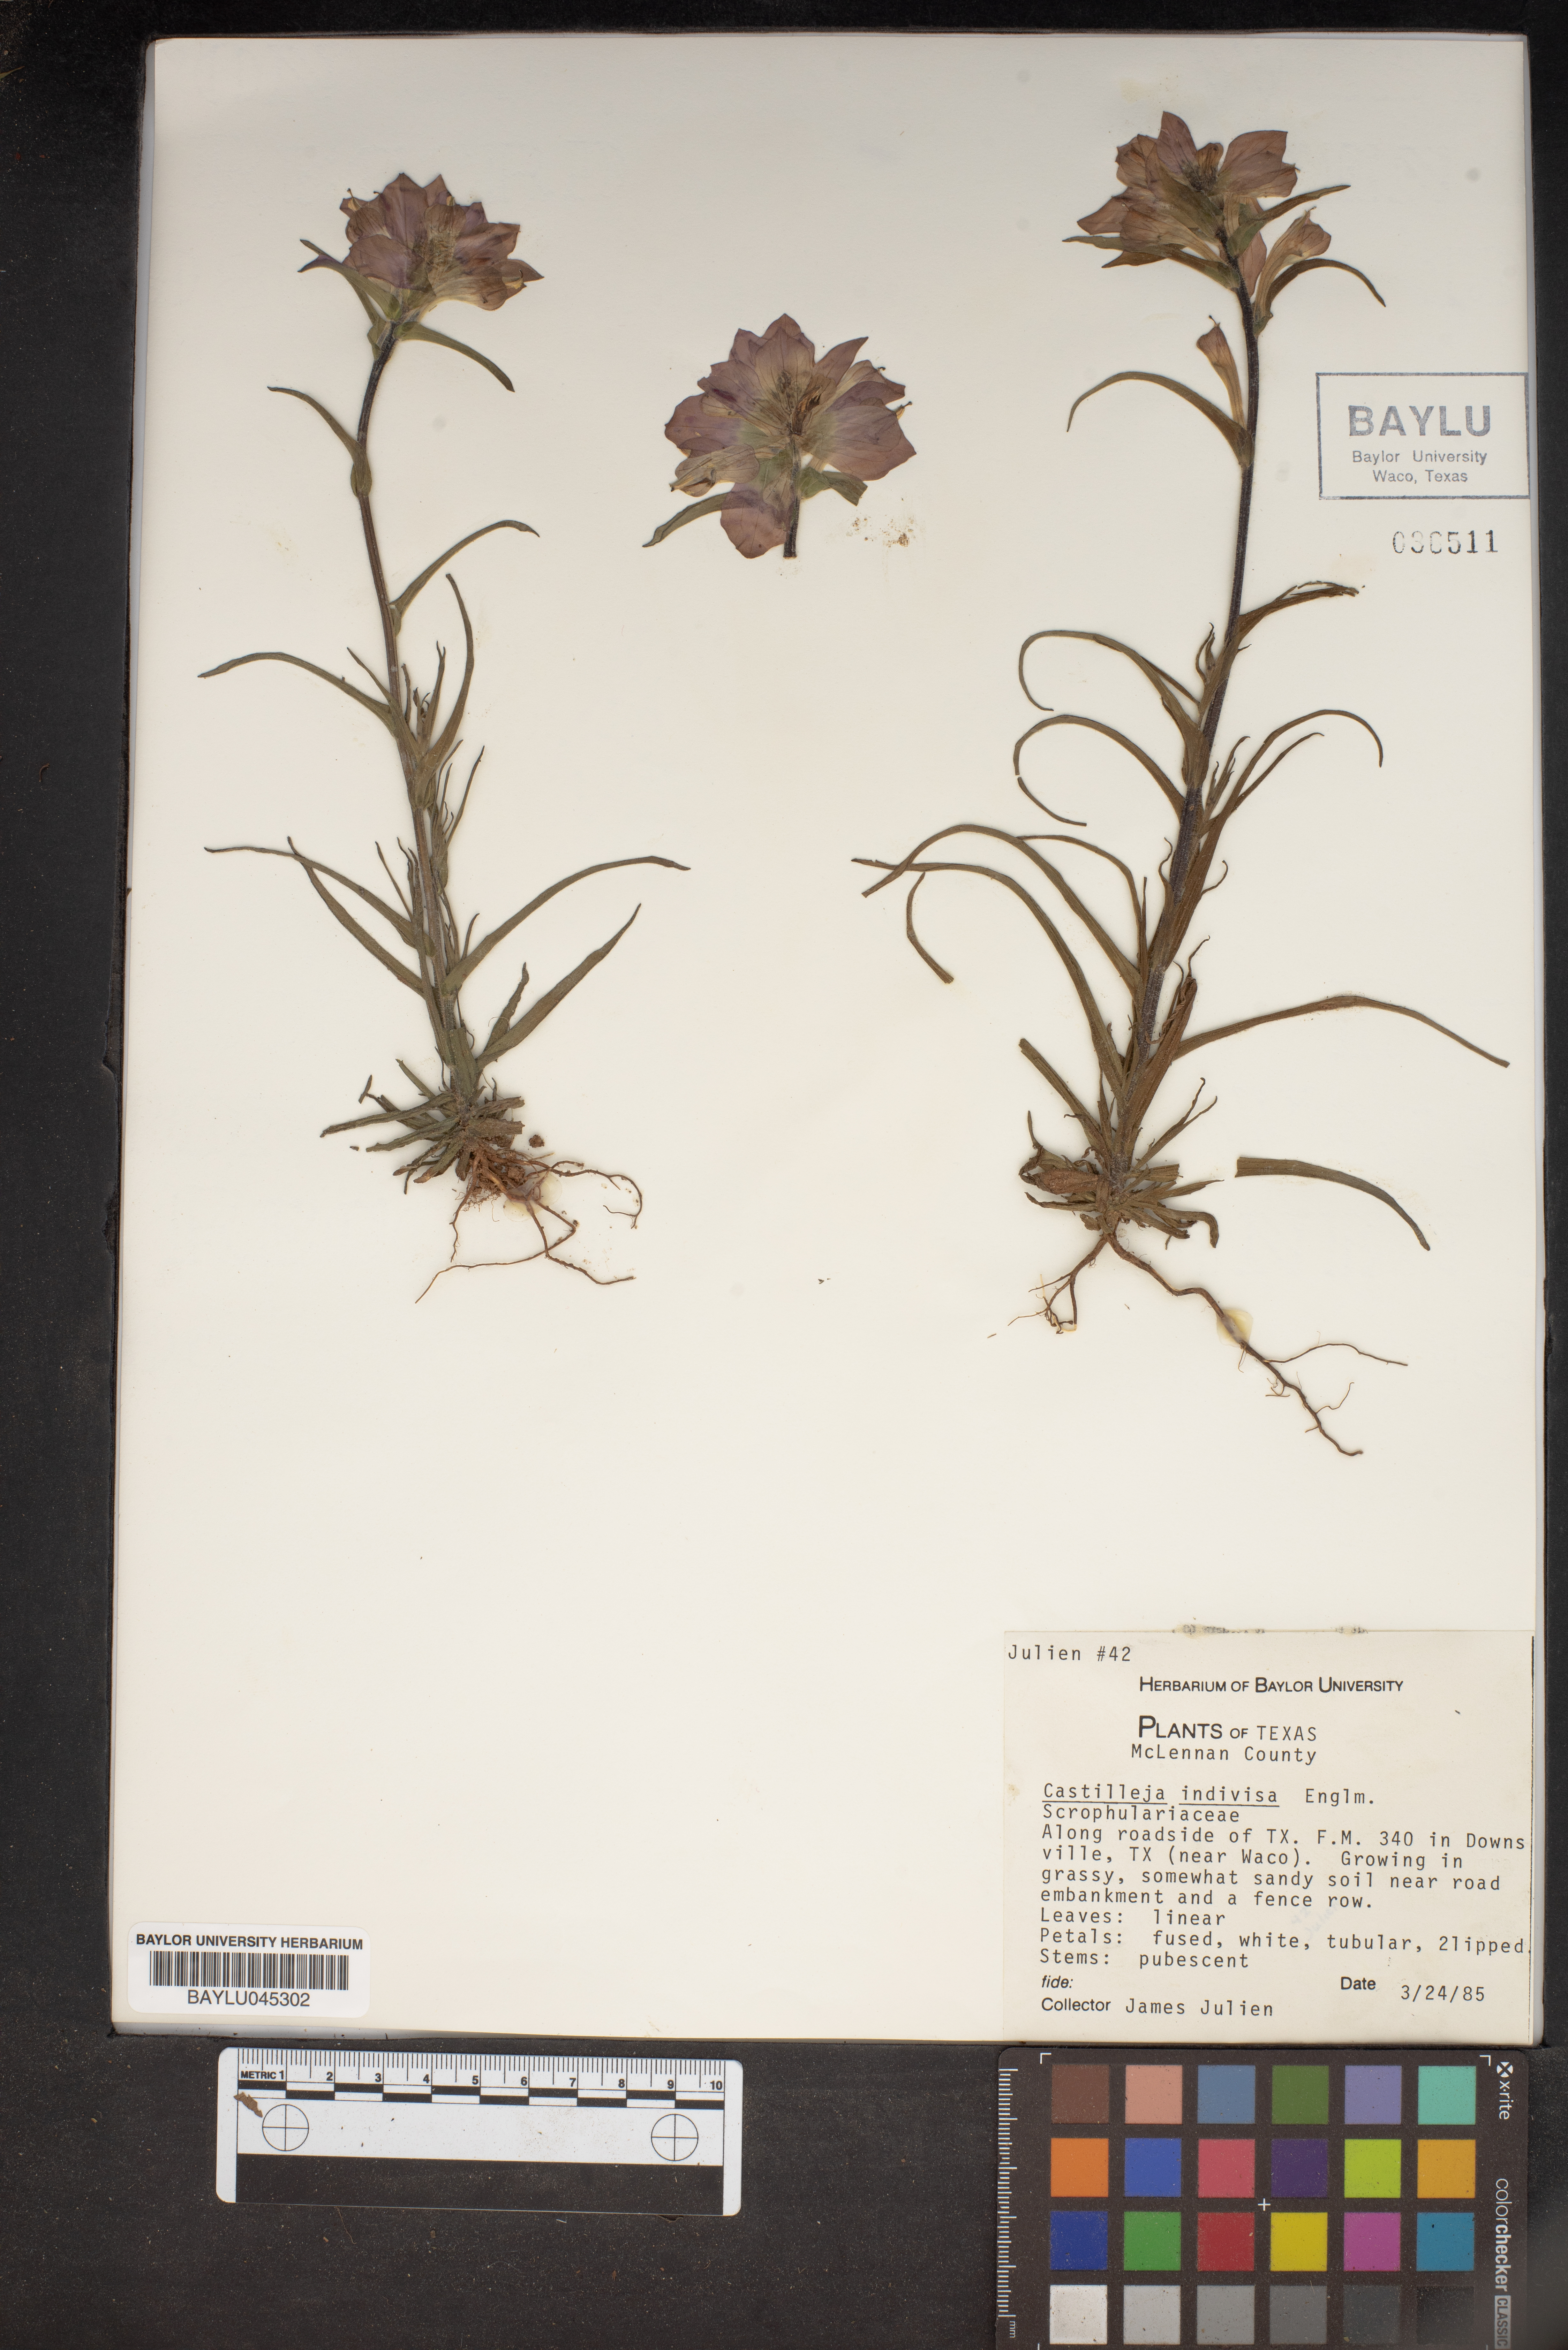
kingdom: Plantae
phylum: Tracheophyta
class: Magnoliopsida
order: Lamiales
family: Orobanchaceae
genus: Castilleja
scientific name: Castilleja indivisa
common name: Texas paintbrush
